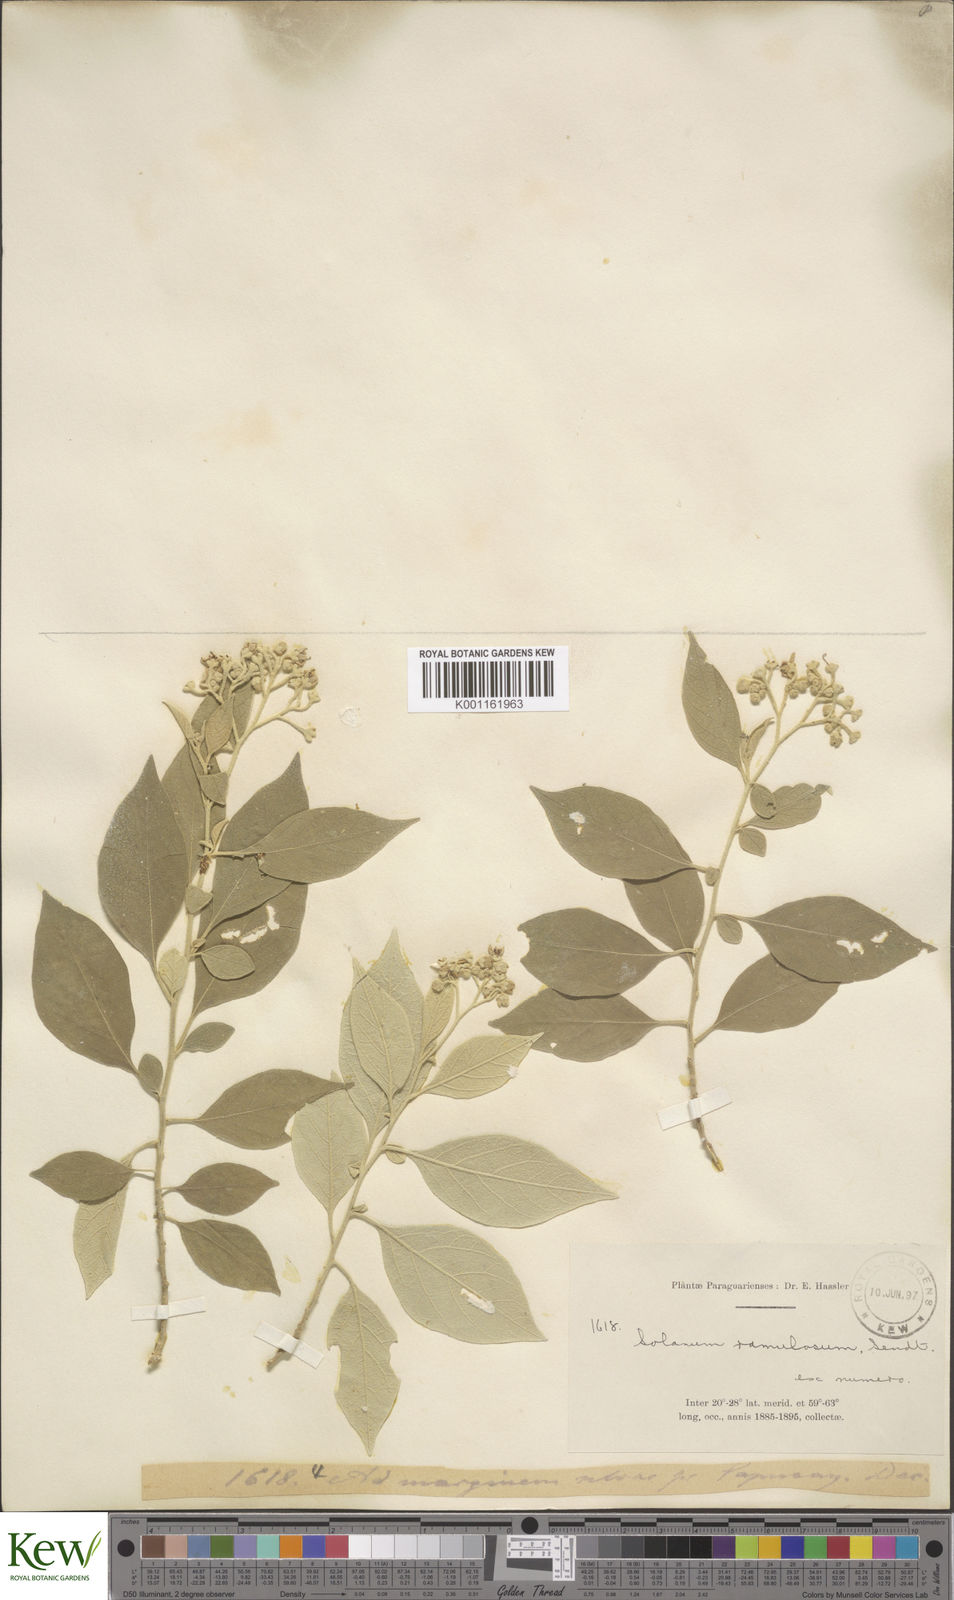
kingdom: Plantae
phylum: Tracheophyta
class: Magnoliopsida
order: Solanales
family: Solanaceae
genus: Solanum
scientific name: Solanum ramulosum
